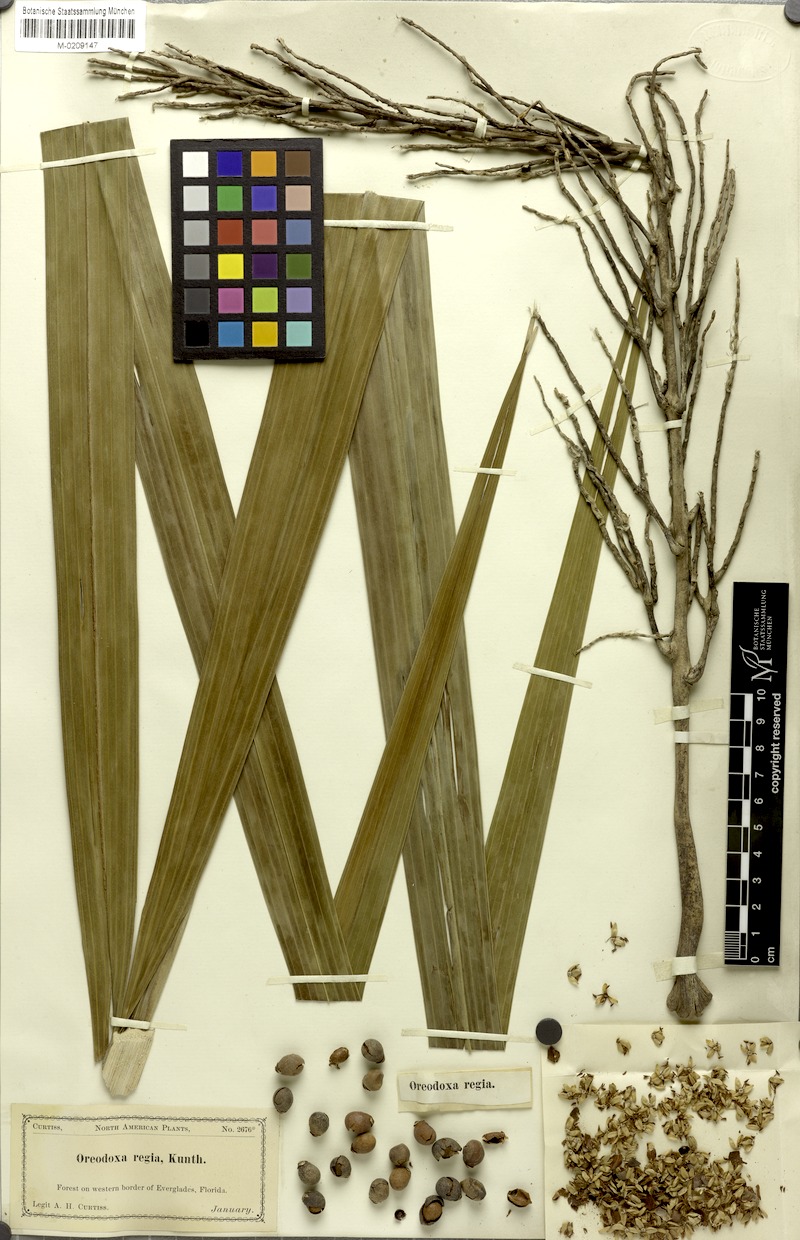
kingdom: Plantae
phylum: Tracheophyta
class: Liliopsida
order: Arecales
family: Arecaceae
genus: Roystonea
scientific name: Roystonea regia
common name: Florida royal palm
